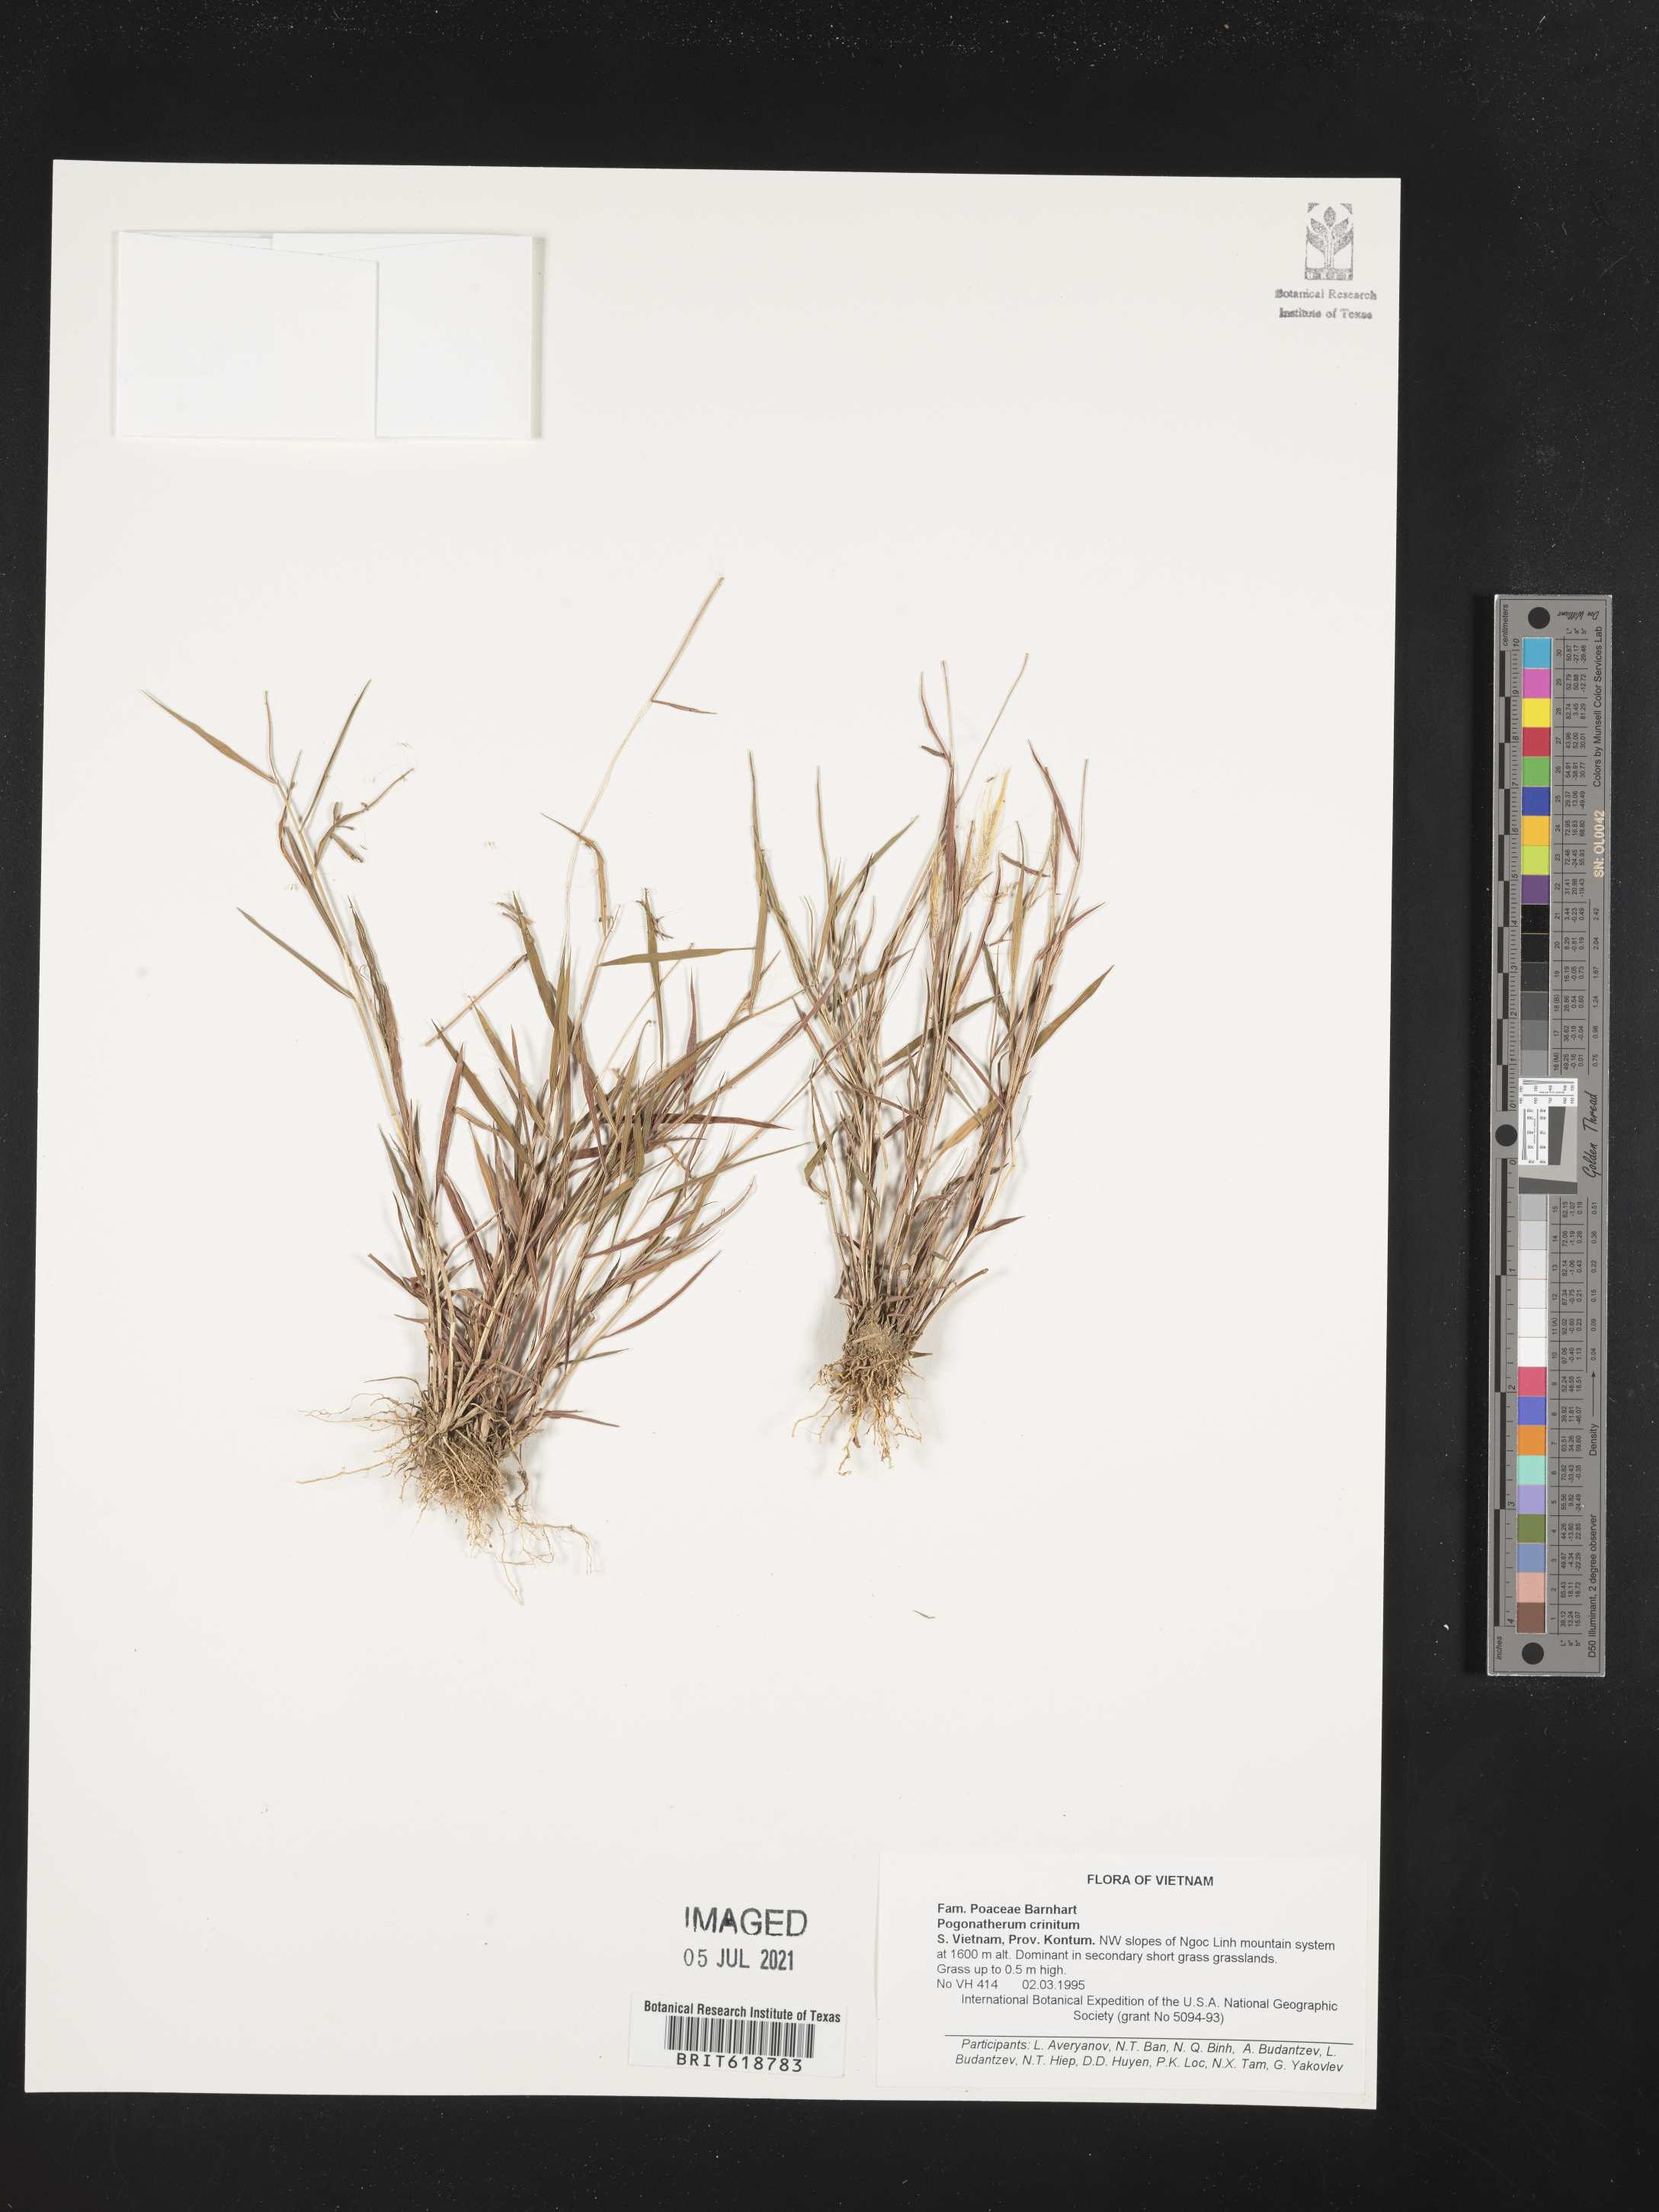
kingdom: Plantae
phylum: Tracheophyta
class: Liliopsida
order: Poales
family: Poaceae
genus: Pogonatherum
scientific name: Pogonatherum crinitum
